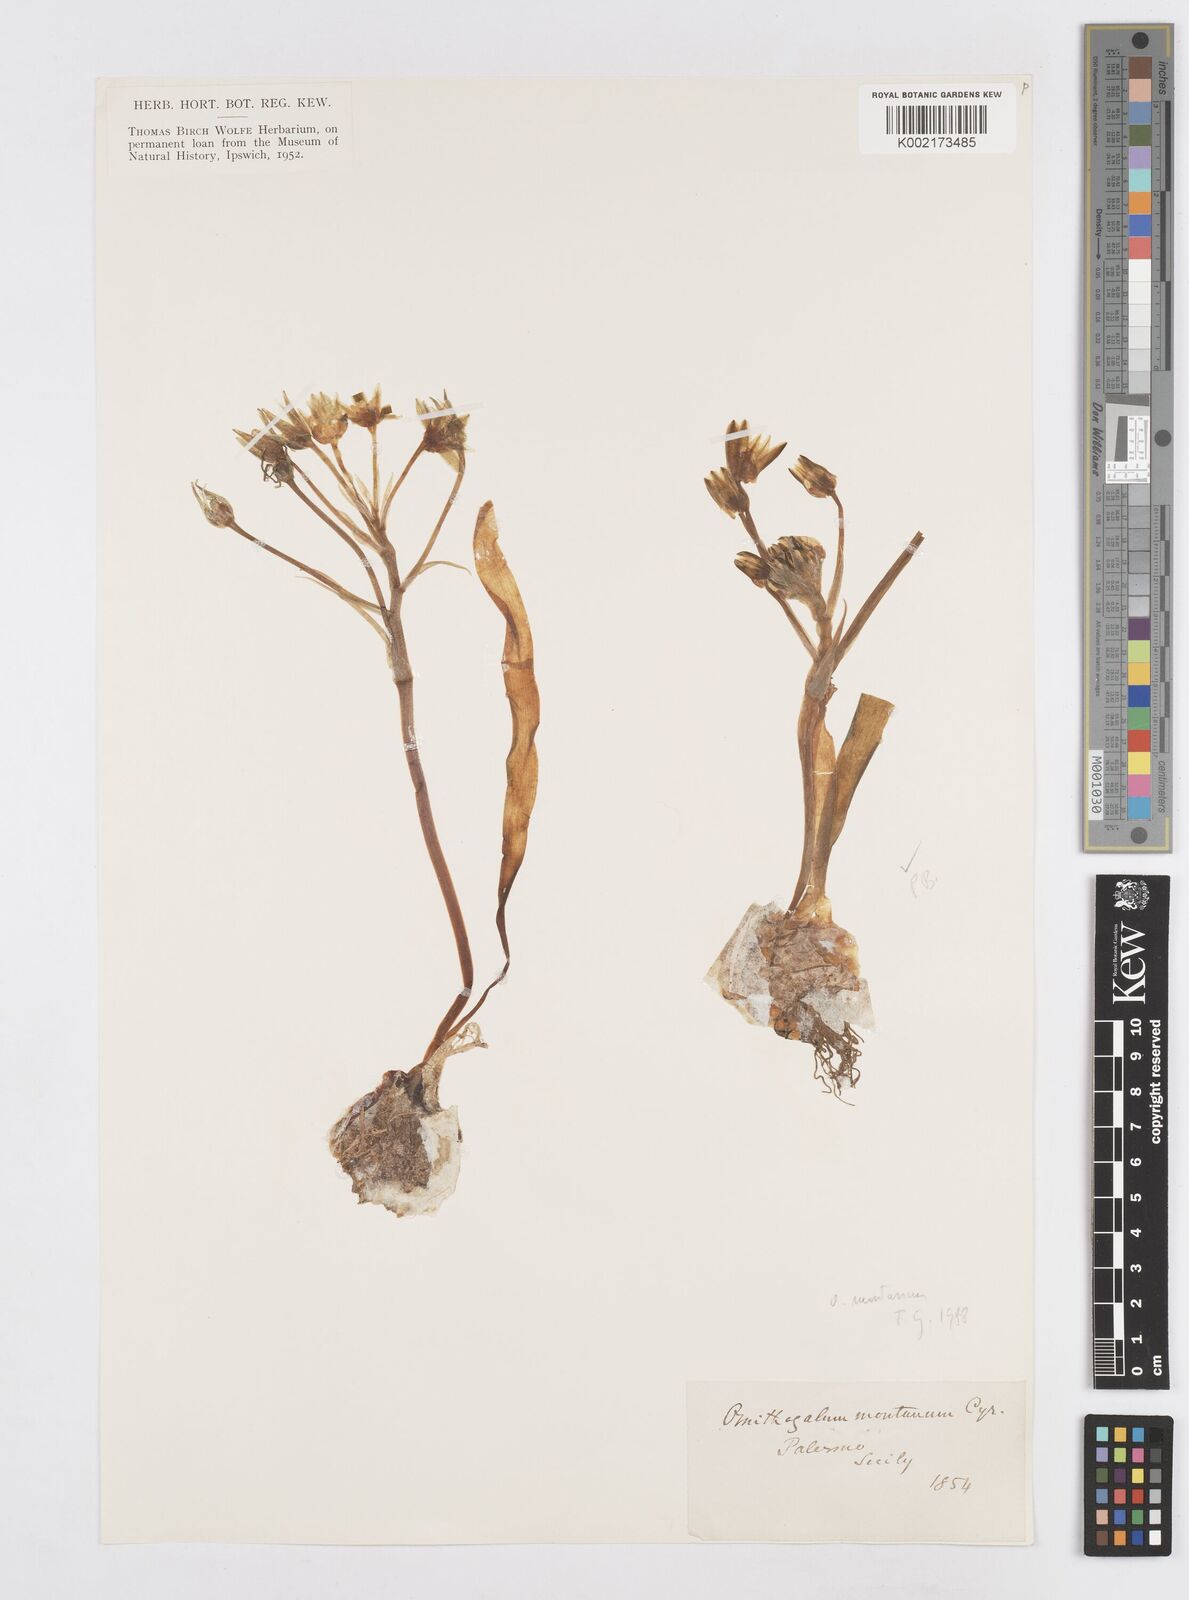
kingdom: Plantae
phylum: Tracheophyta
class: Liliopsida
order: Asparagales
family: Asparagaceae
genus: Ornithogalum
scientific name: Ornithogalum montanum
